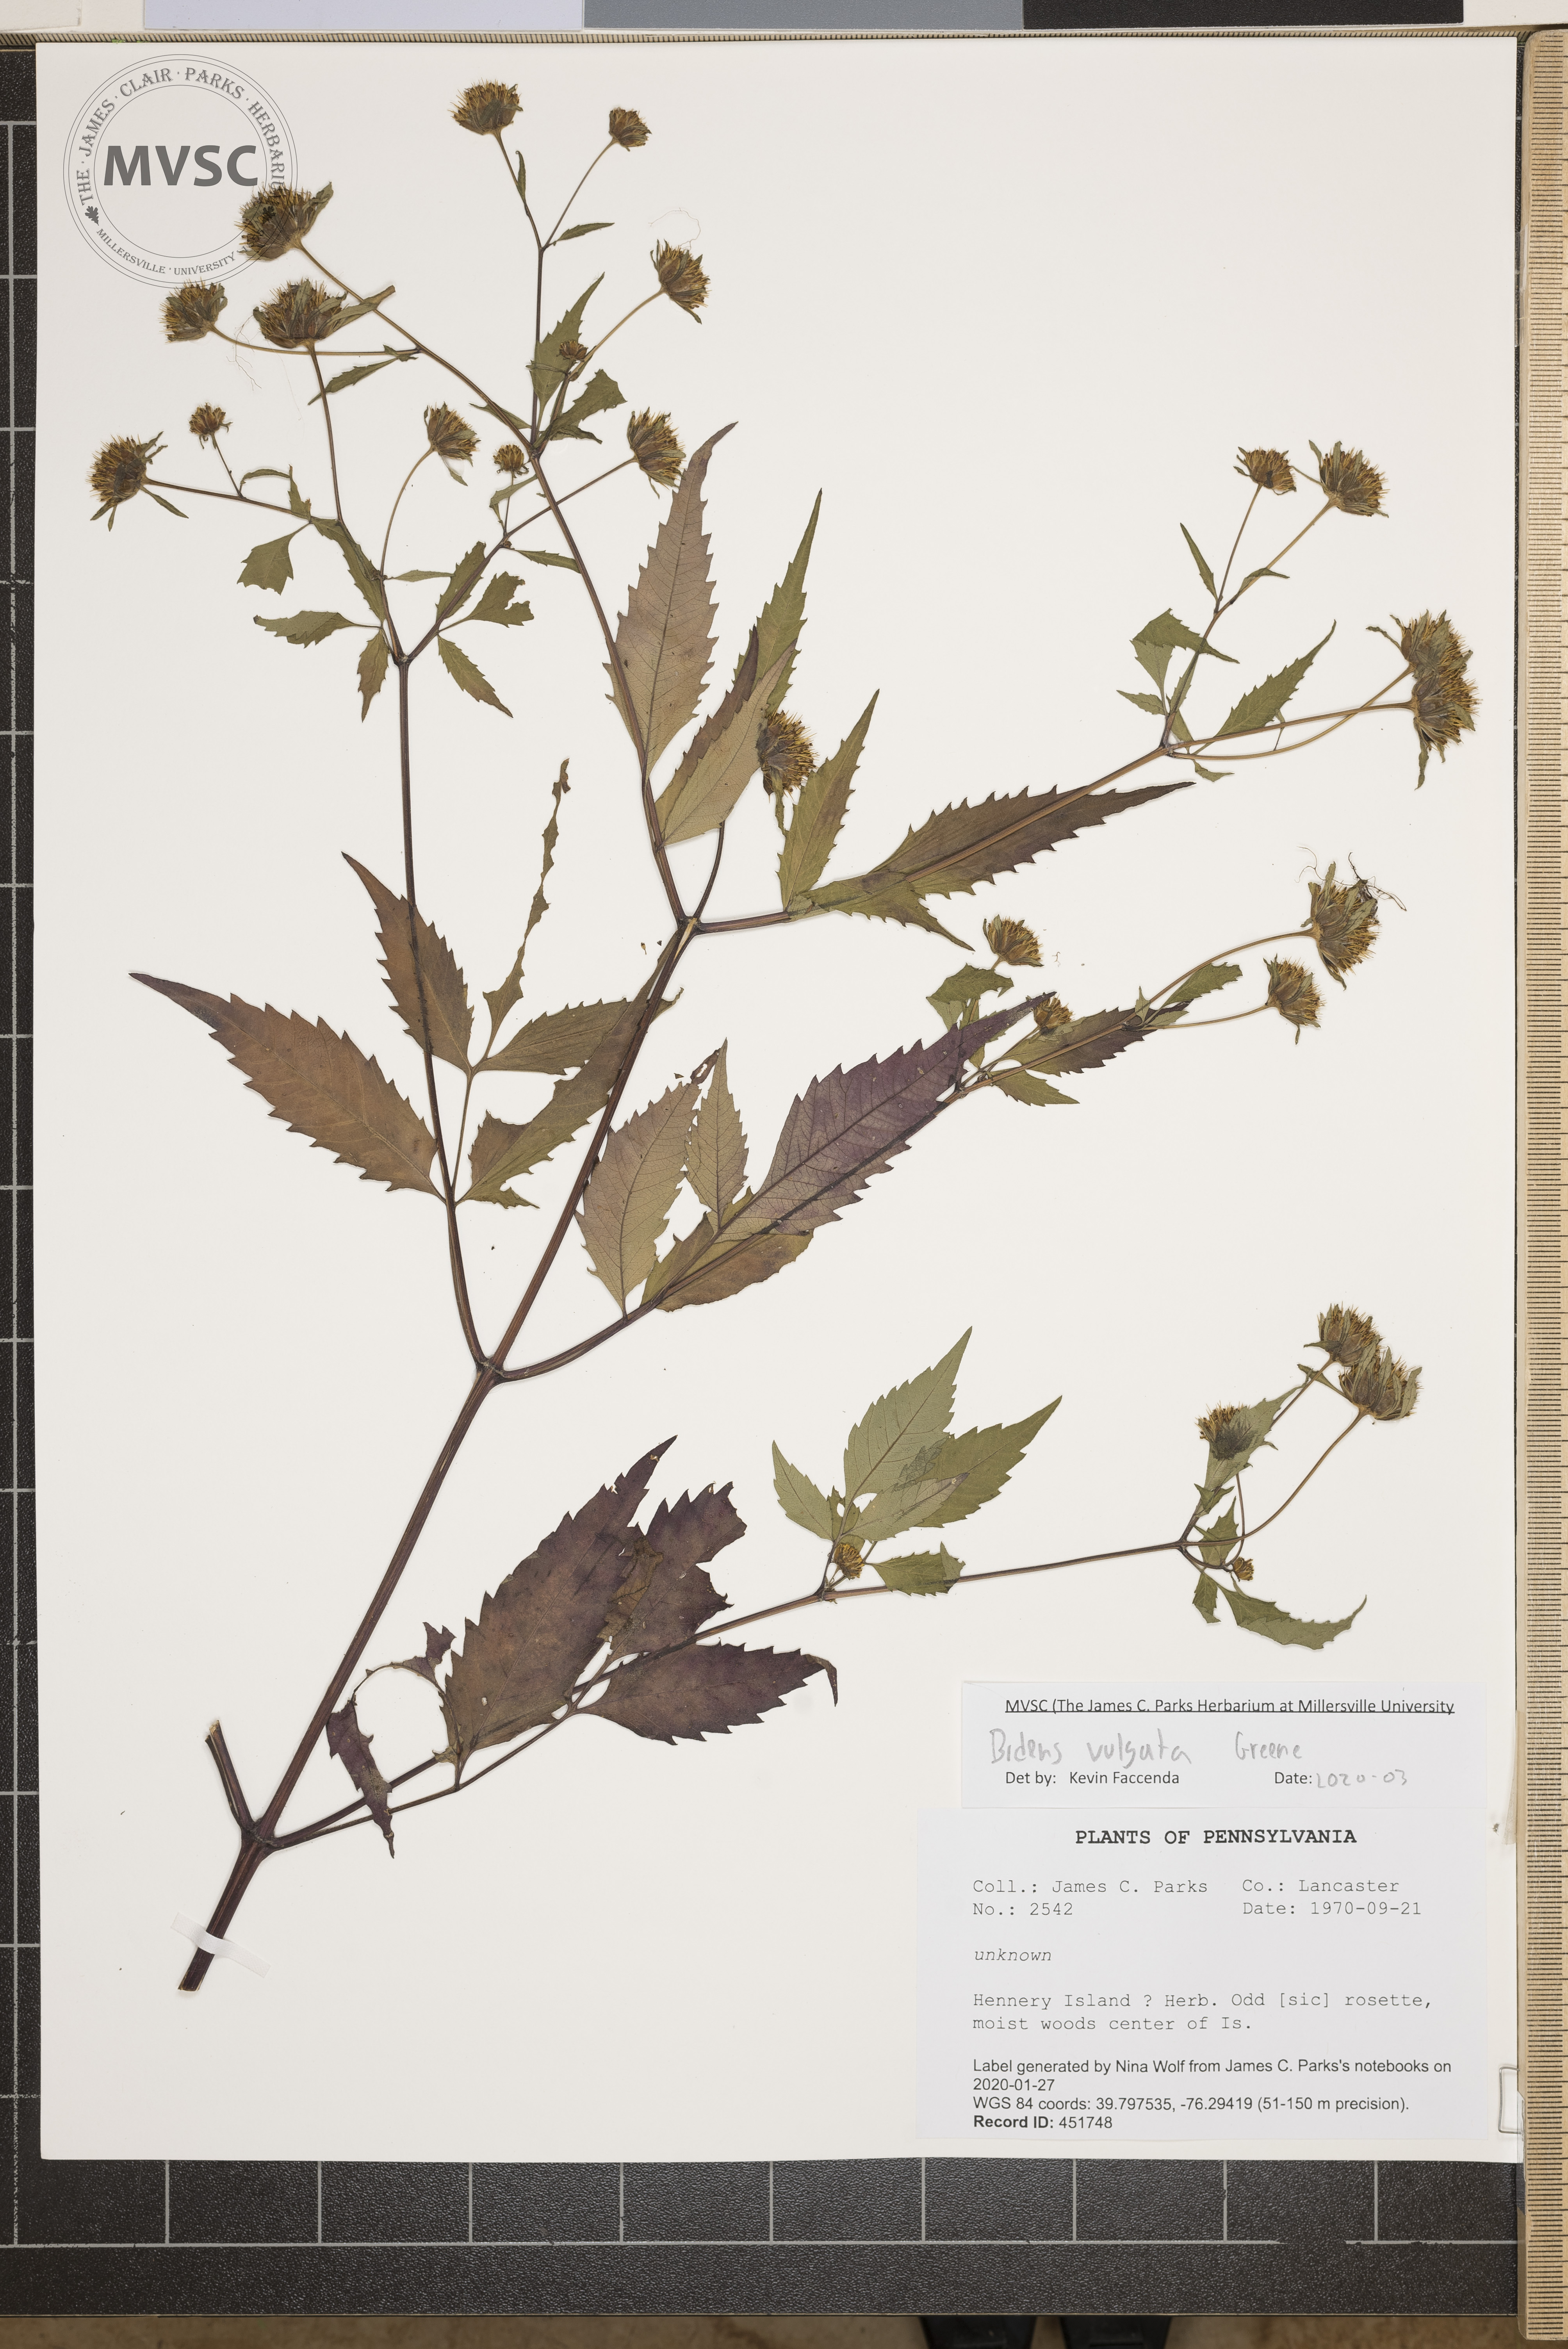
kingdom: Plantae
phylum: Tracheophyta
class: Magnoliopsida
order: Asterales
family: Asteraceae
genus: Bidens
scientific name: Bidens vulgata
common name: Tall beggarticks
